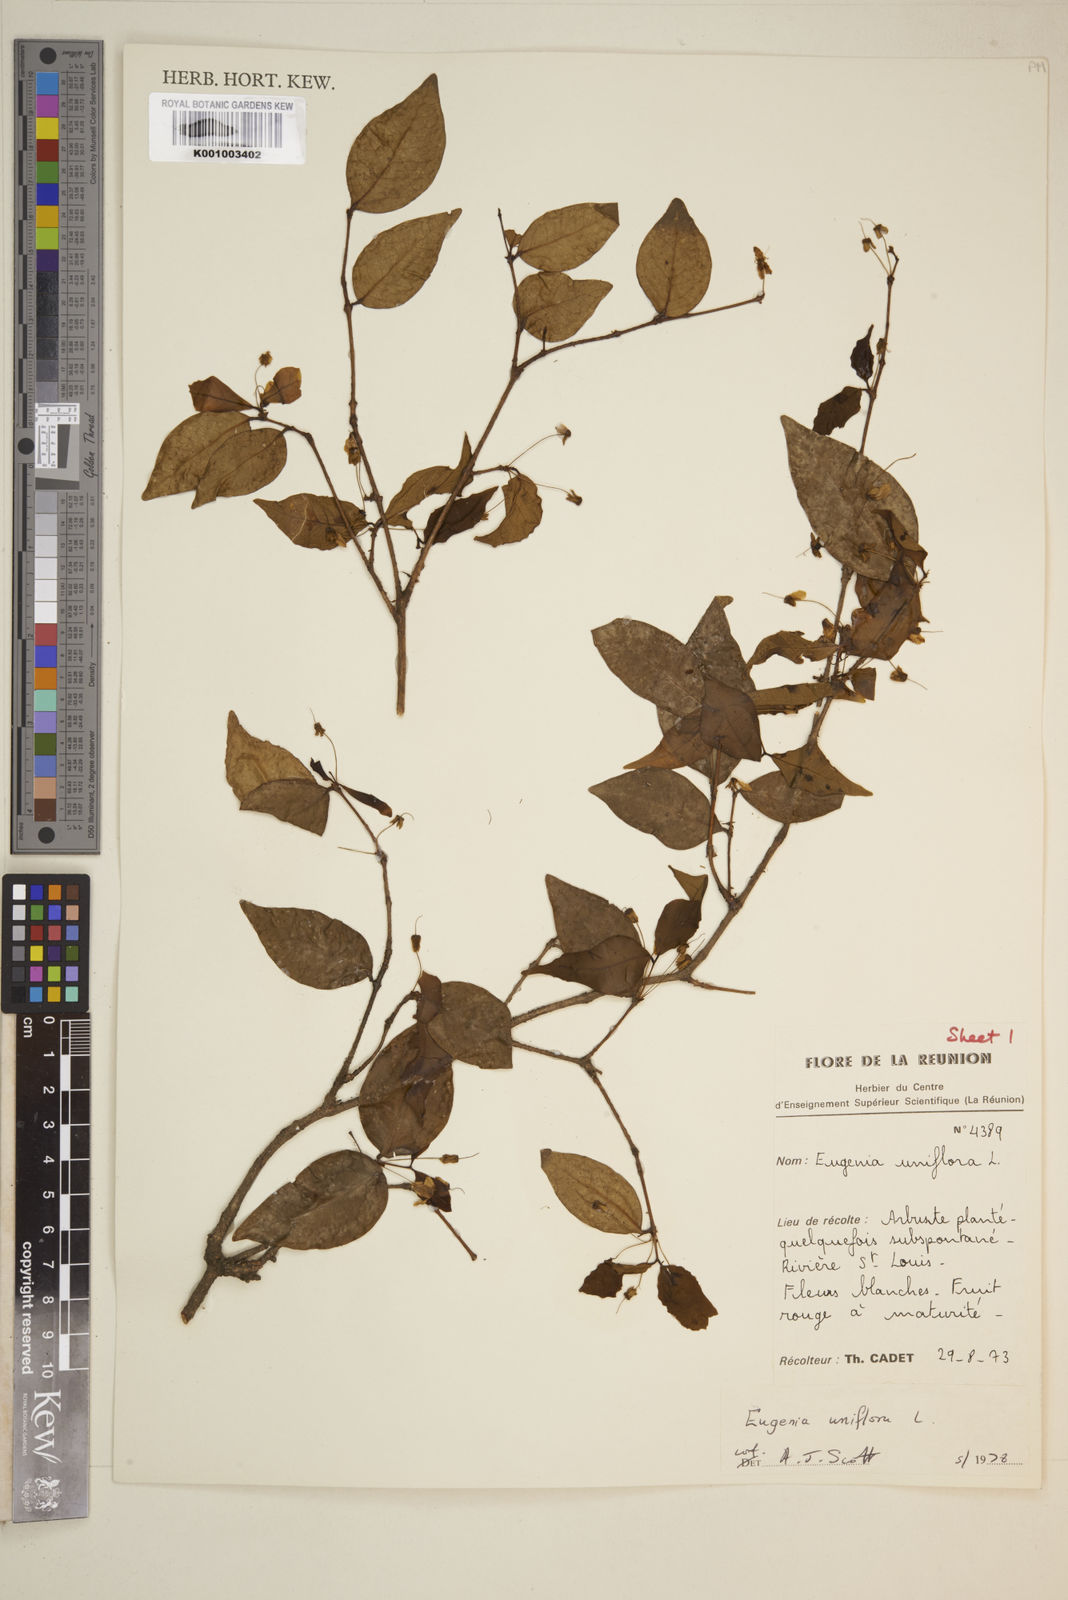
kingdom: Plantae
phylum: Tracheophyta
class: Magnoliopsida
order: Myrtales
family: Myrtaceae
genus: Eugenia
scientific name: Eugenia uniflora
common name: Surinam cherry
